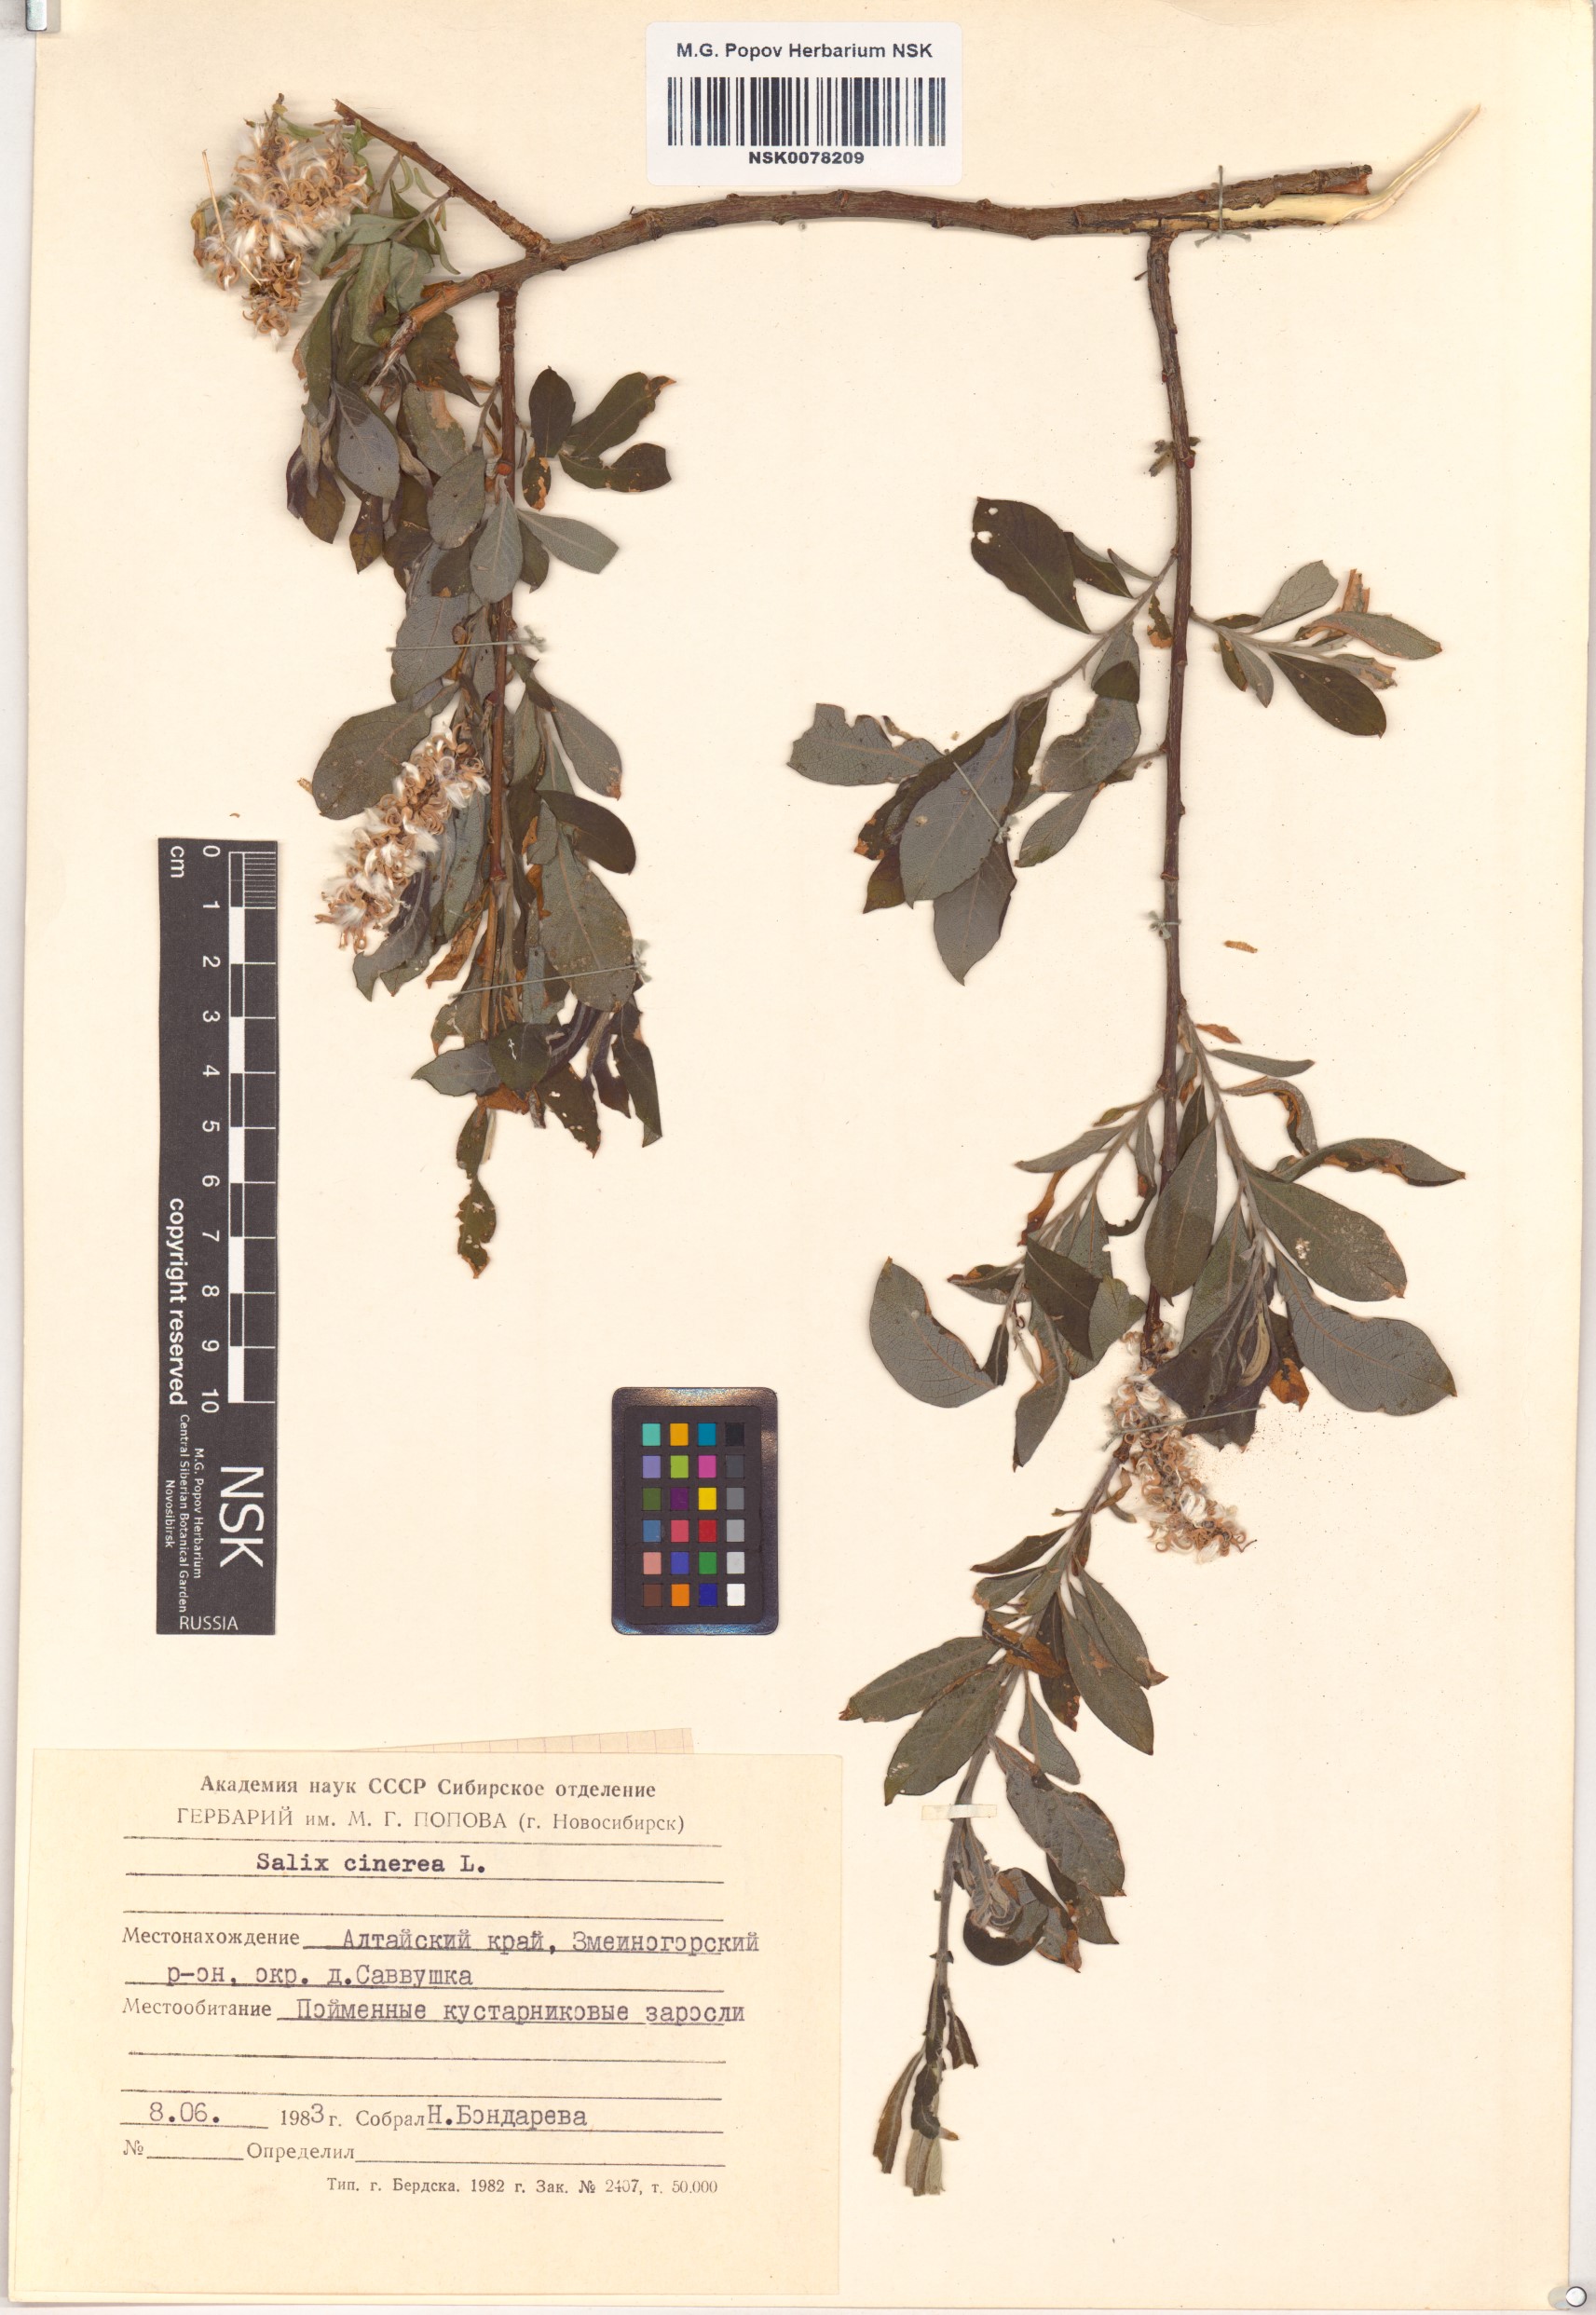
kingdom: Plantae
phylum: Tracheophyta
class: Magnoliopsida
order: Malpighiales
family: Salicaceae
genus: Salix
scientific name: Salix cinerea
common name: Common sallow
